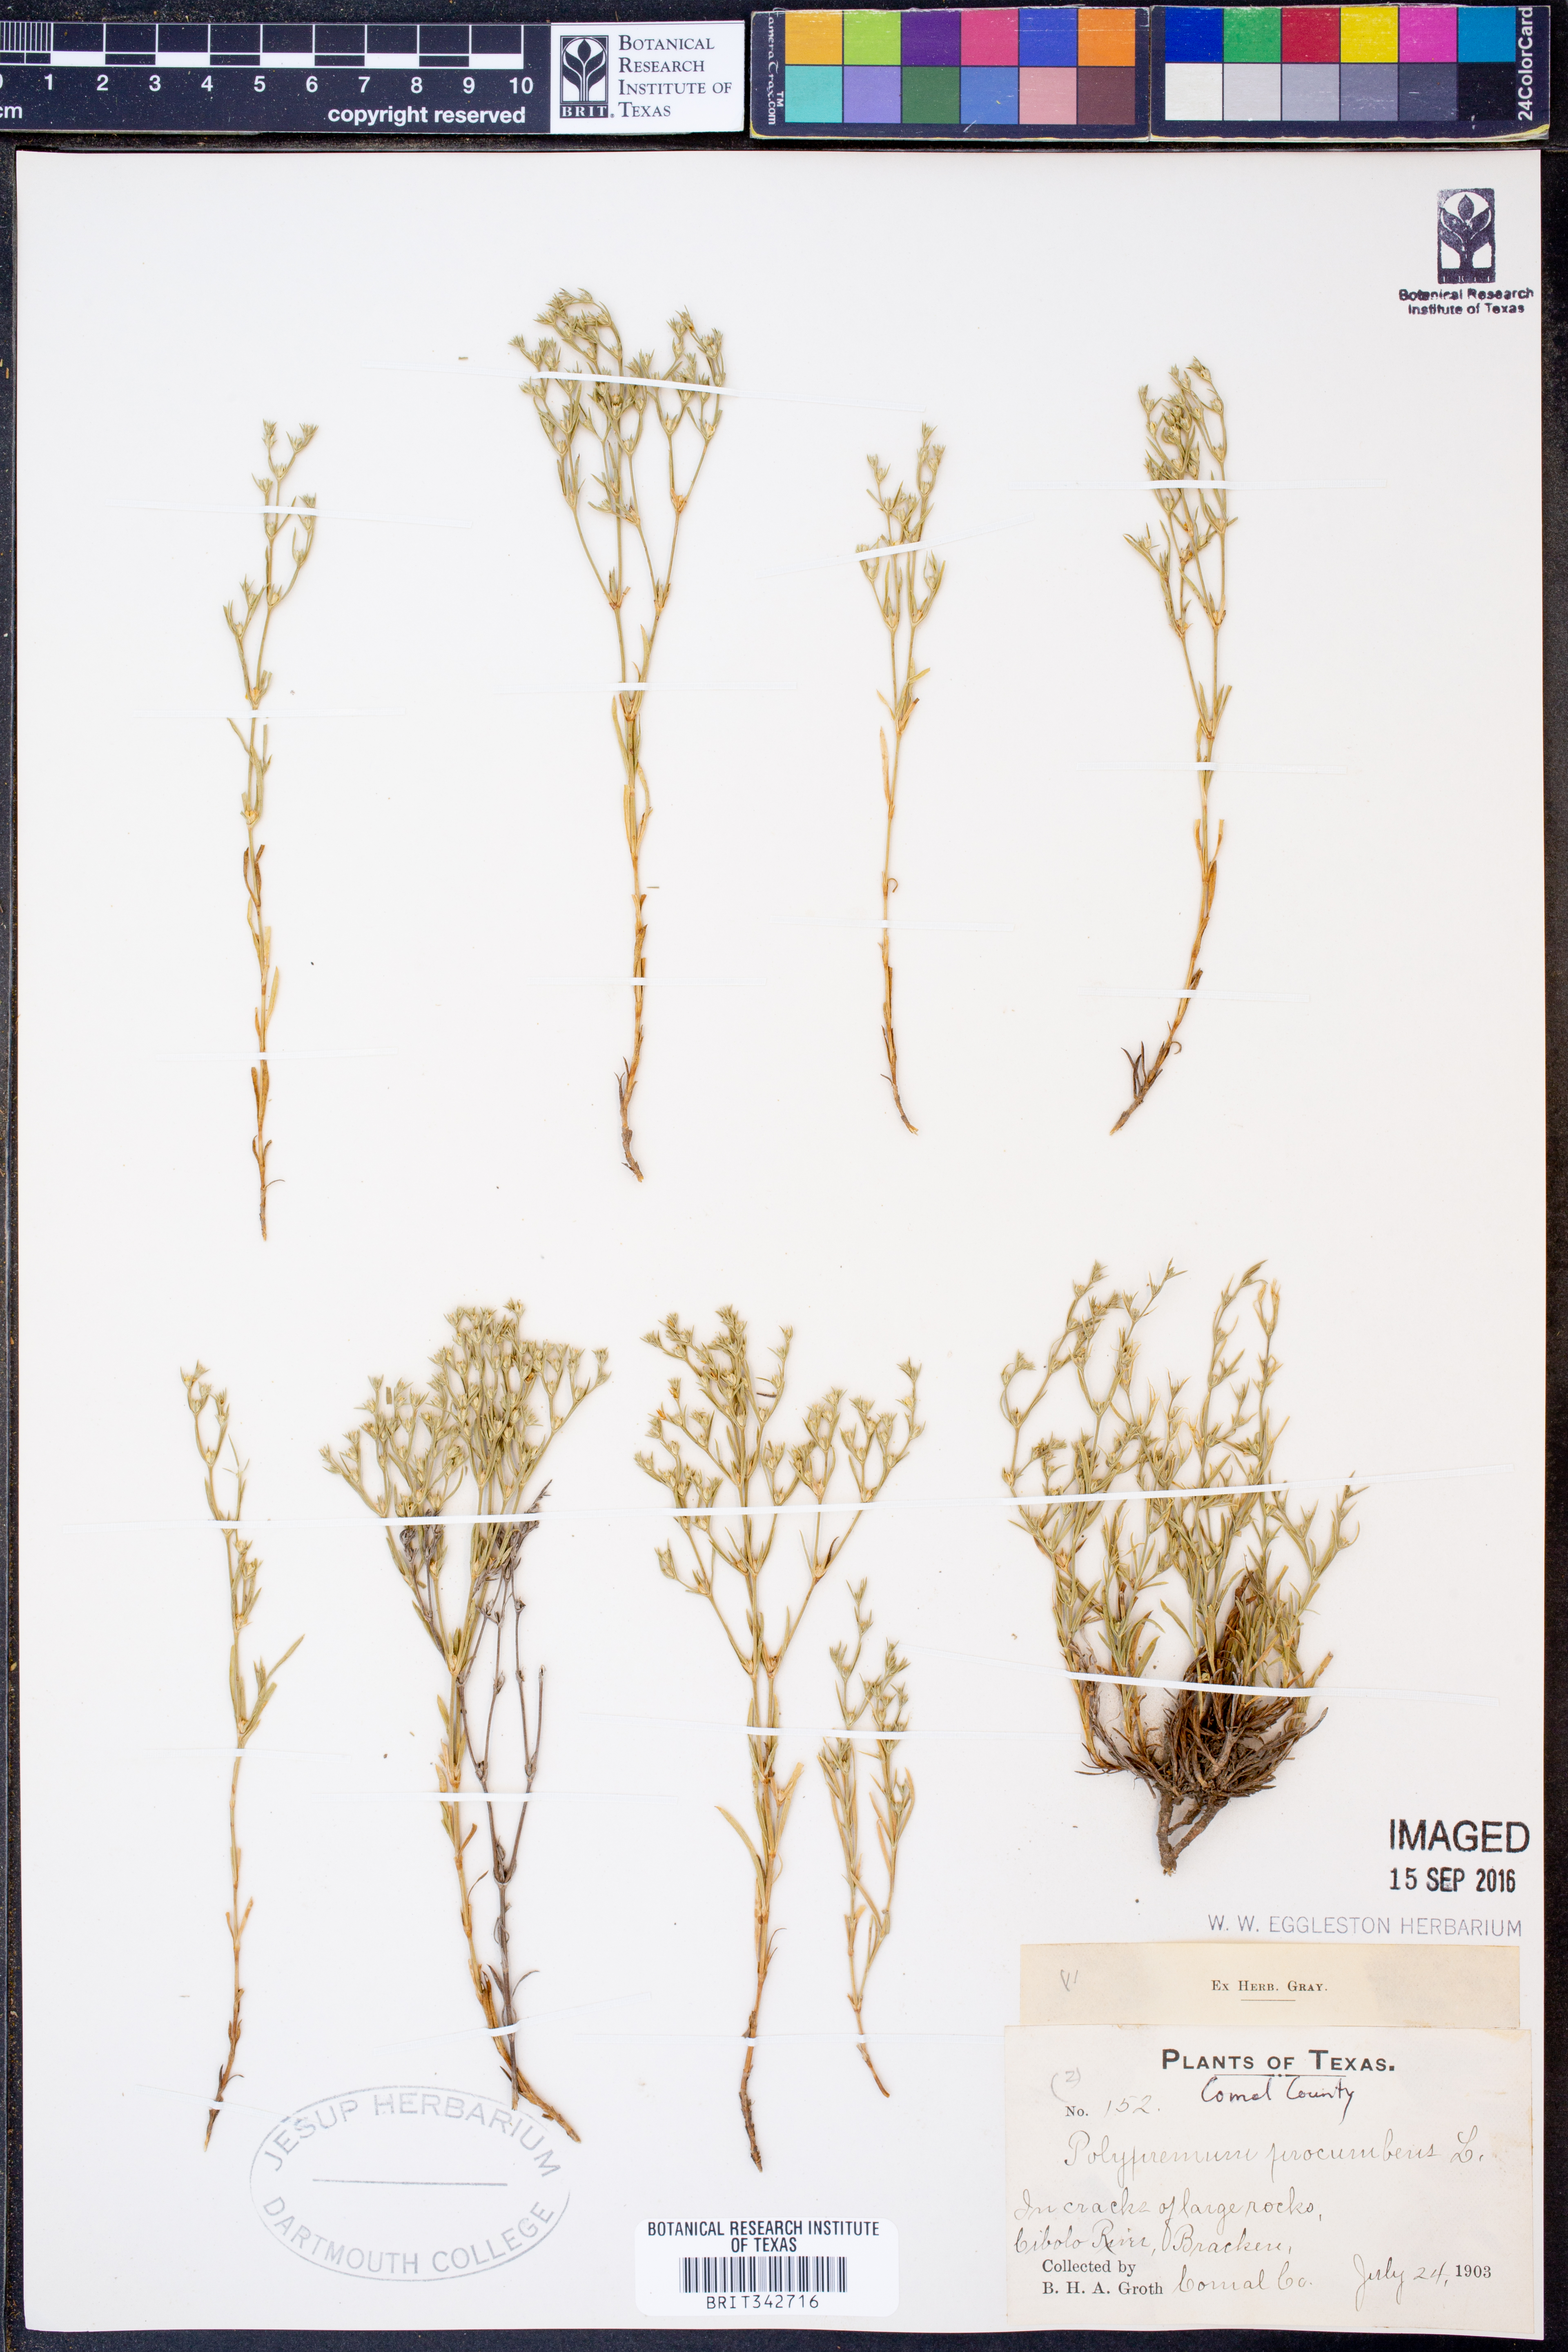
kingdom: Plantae
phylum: Tracheophyta
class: Magnoliopsida
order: Lamiales
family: Tetrachondraceae
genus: Polypremum
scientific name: Polypremum procumbens
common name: Juniper-leaf
